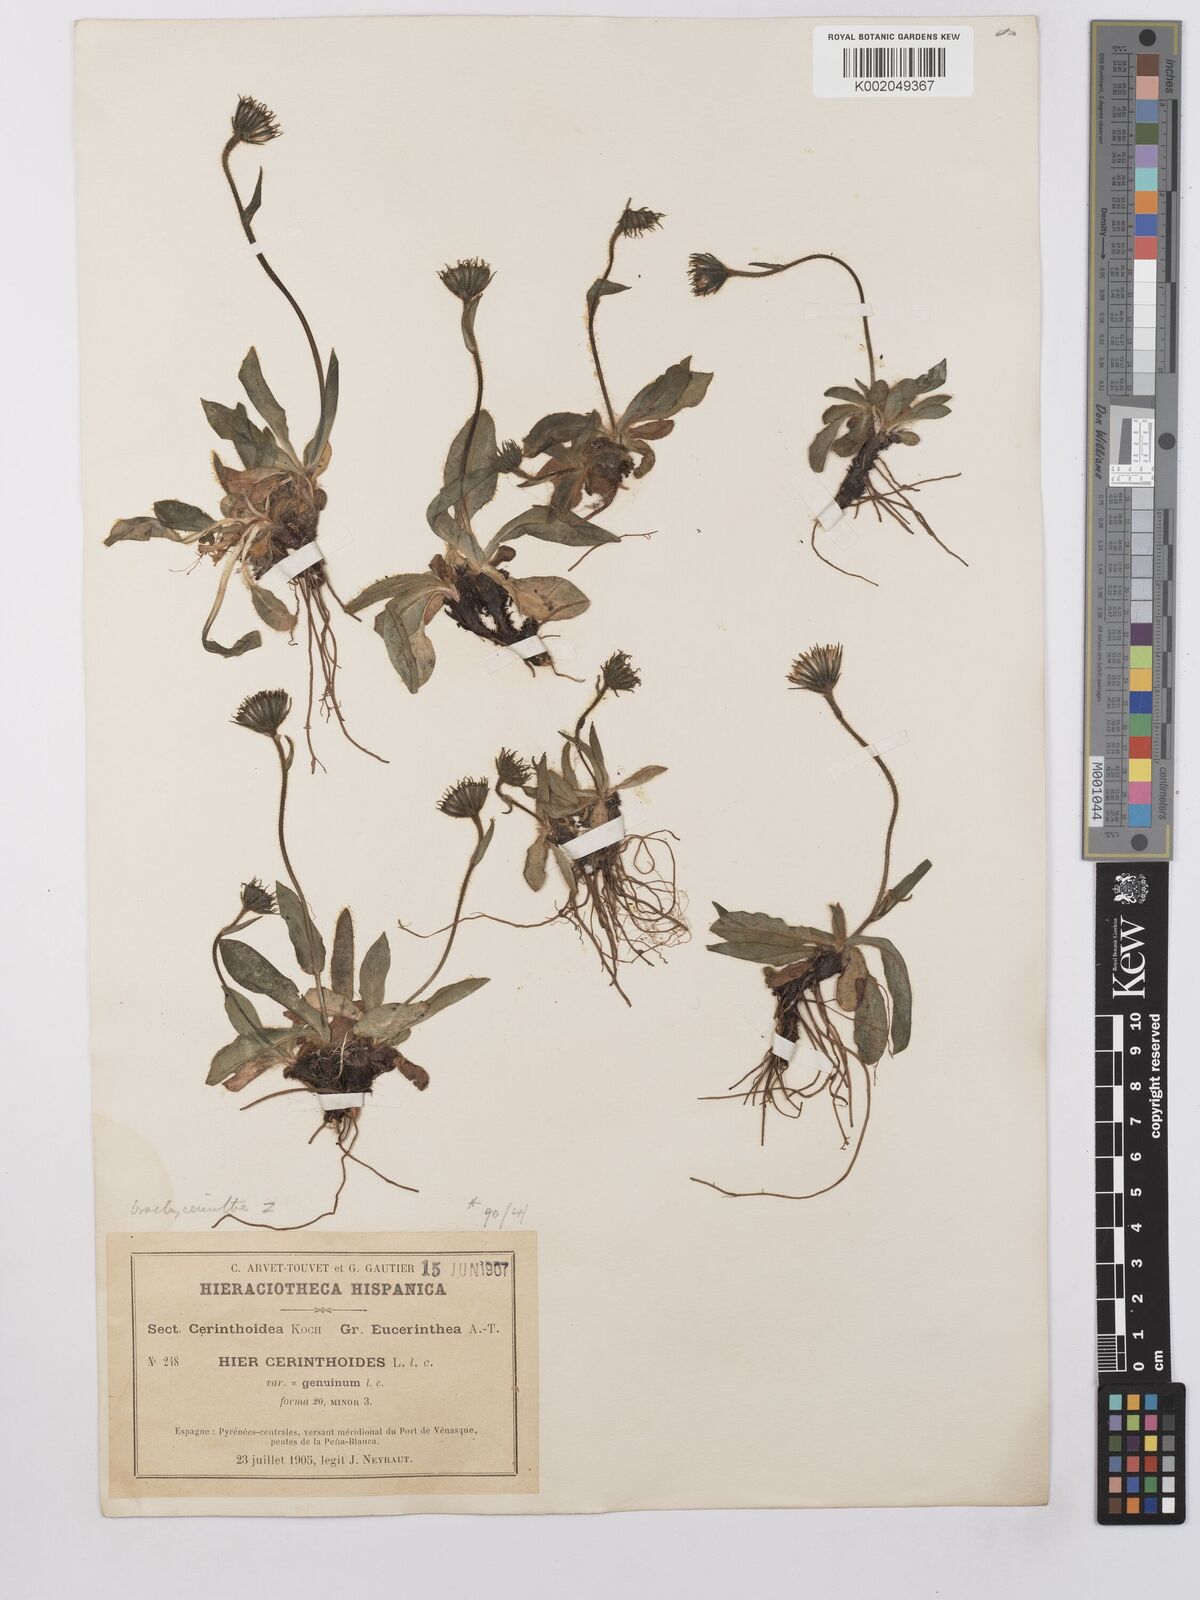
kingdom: Plantae
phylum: Tracheophyta
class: Magnoliopsida
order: Asterales
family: Asteraceae
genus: Hieracium
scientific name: Hieracium cerinthoides
